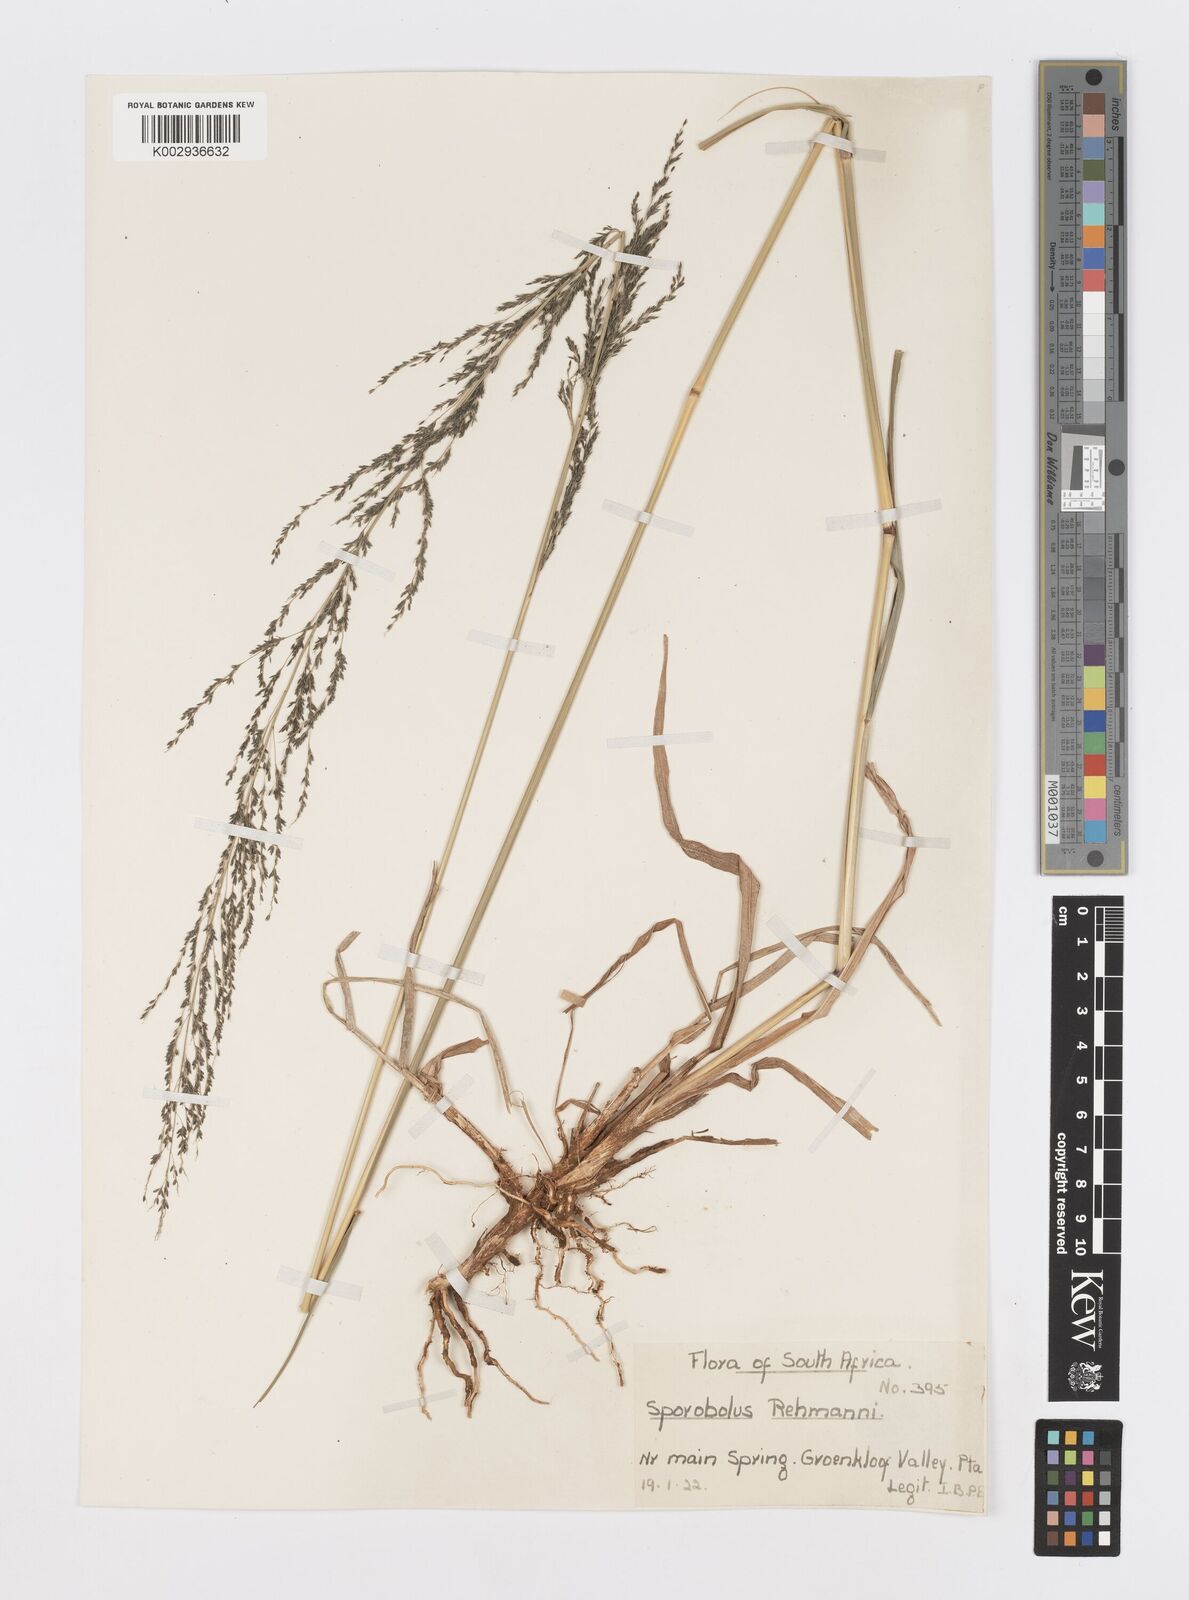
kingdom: Plantae
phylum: Tracheophyta
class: Liliopsida
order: Poales
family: Poaceae
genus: Sporobolus
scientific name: Sporobolus fimbriatus
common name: Fringed dropseed
